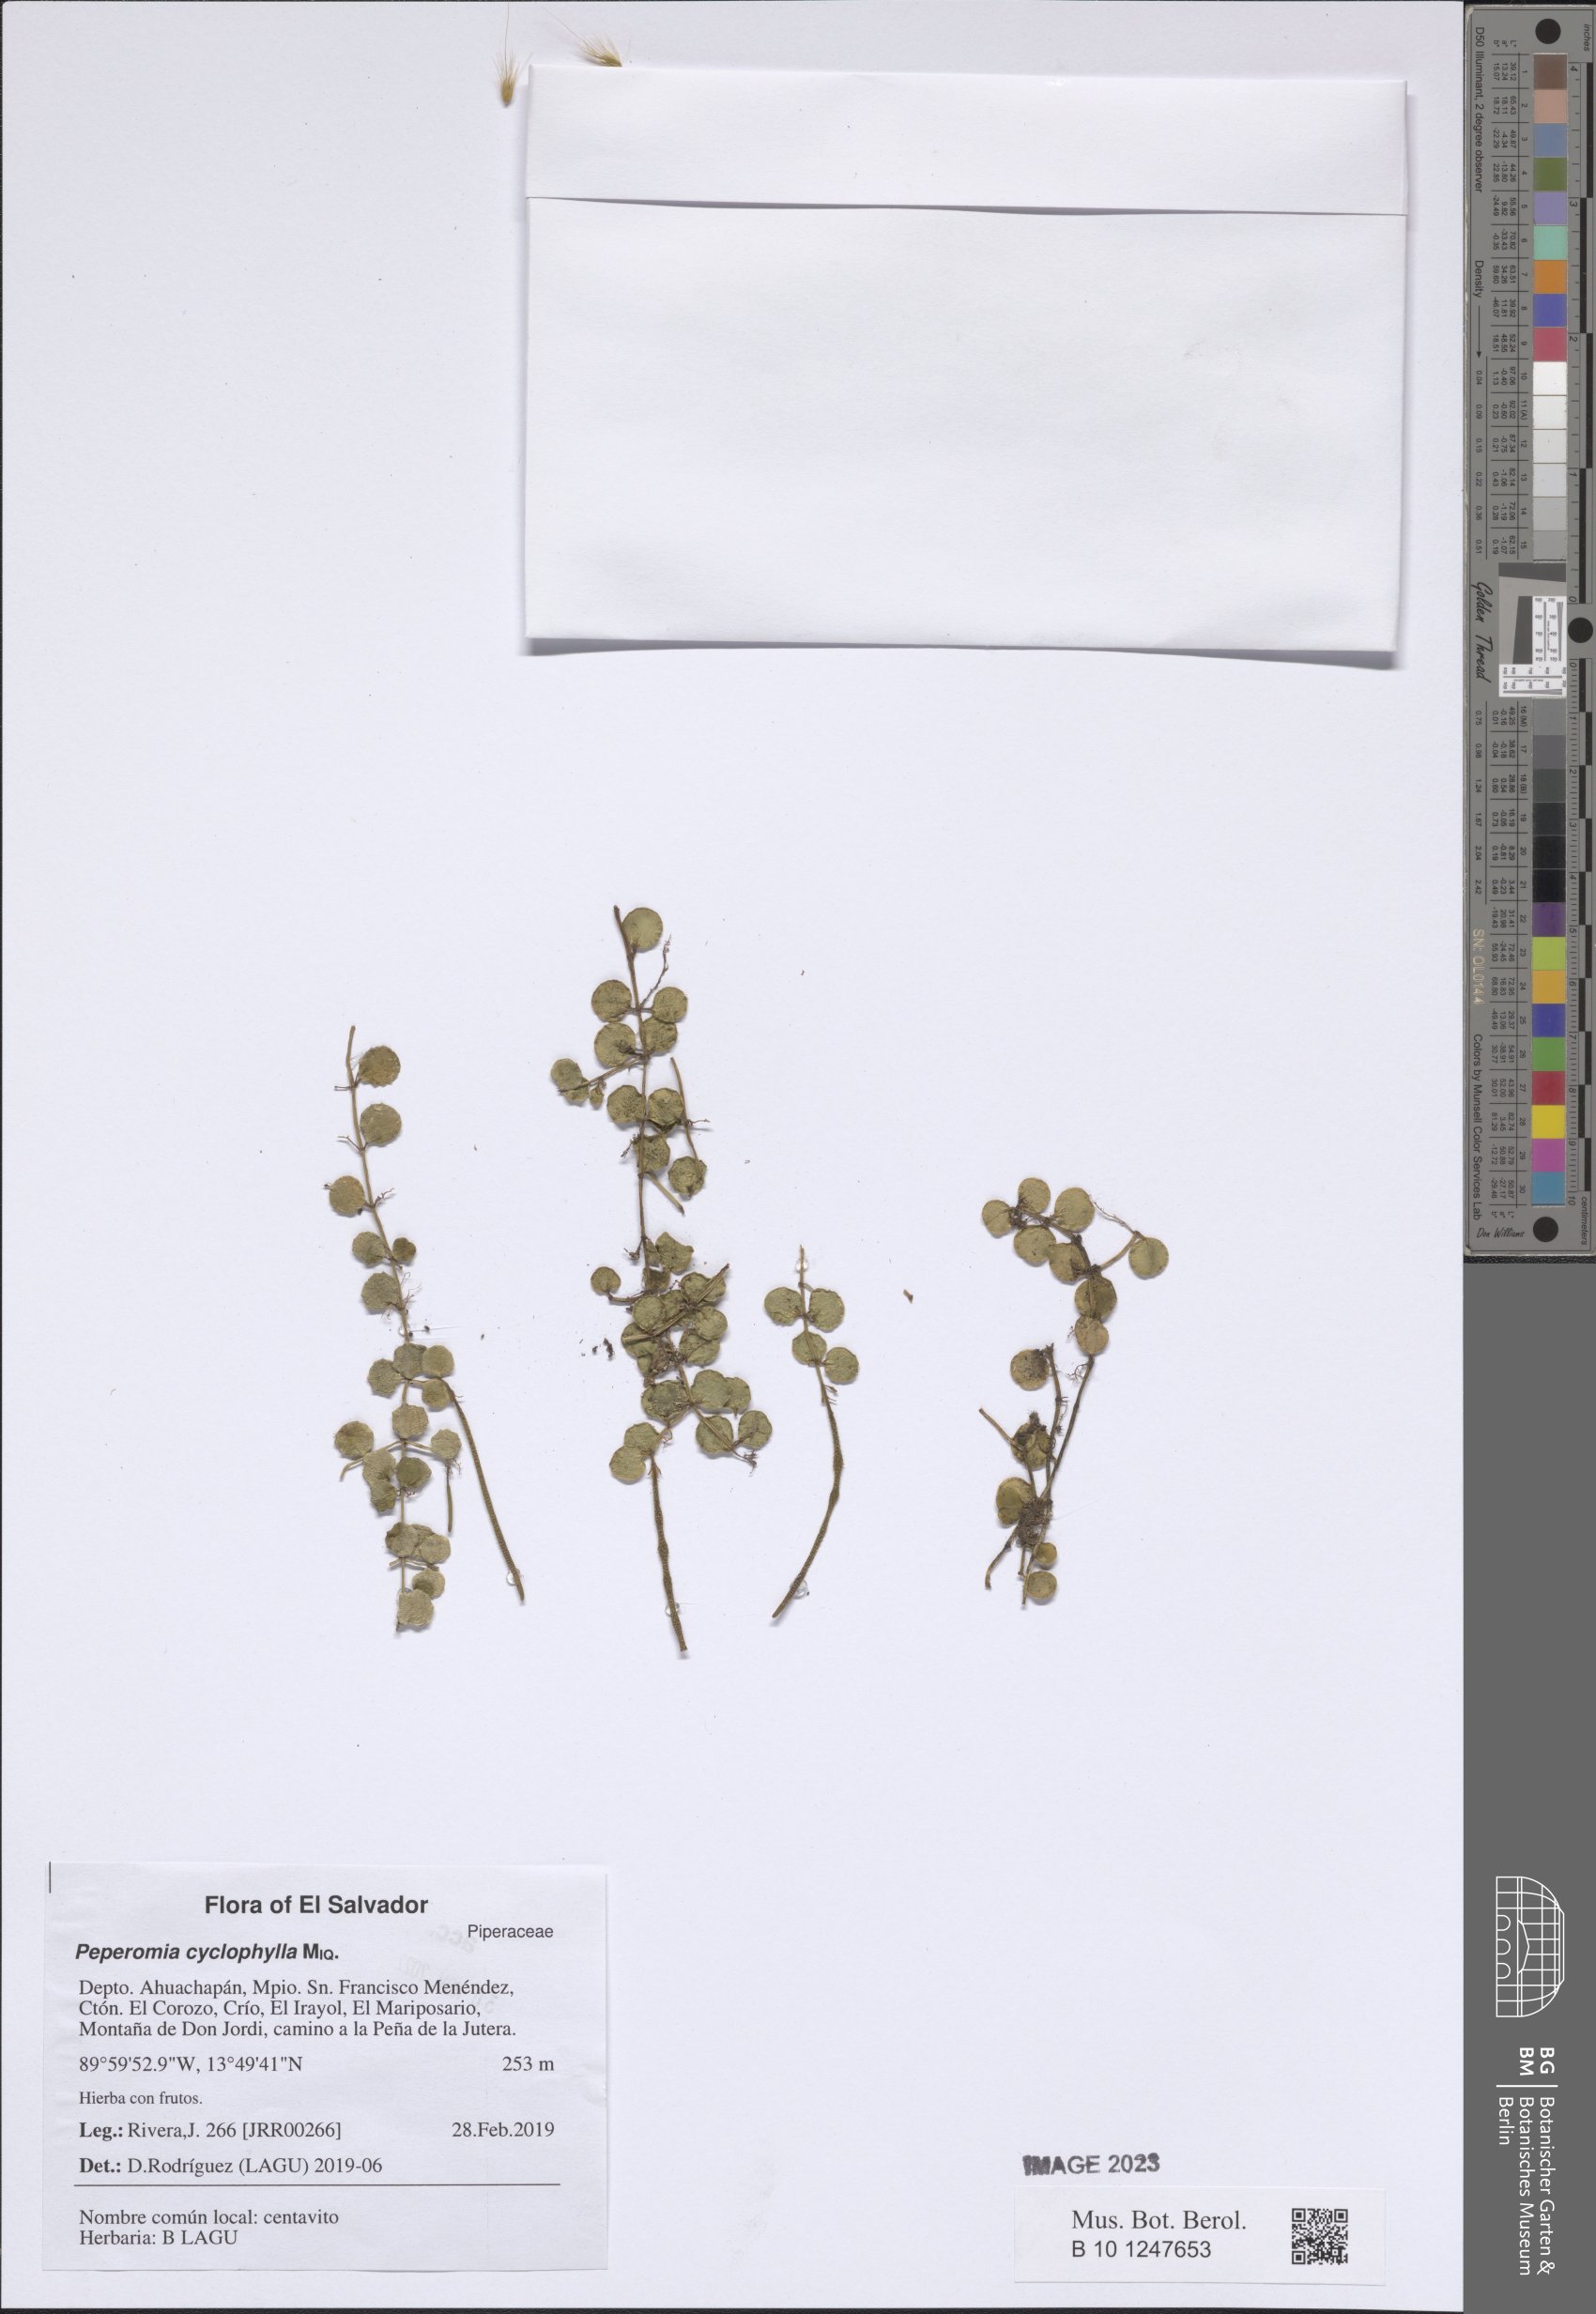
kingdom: Plantae
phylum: Tracheophyta
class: Magnoliopsida
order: Piperales
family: Piperaceae
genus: Peperomia
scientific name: Peperomia cyclophylla
